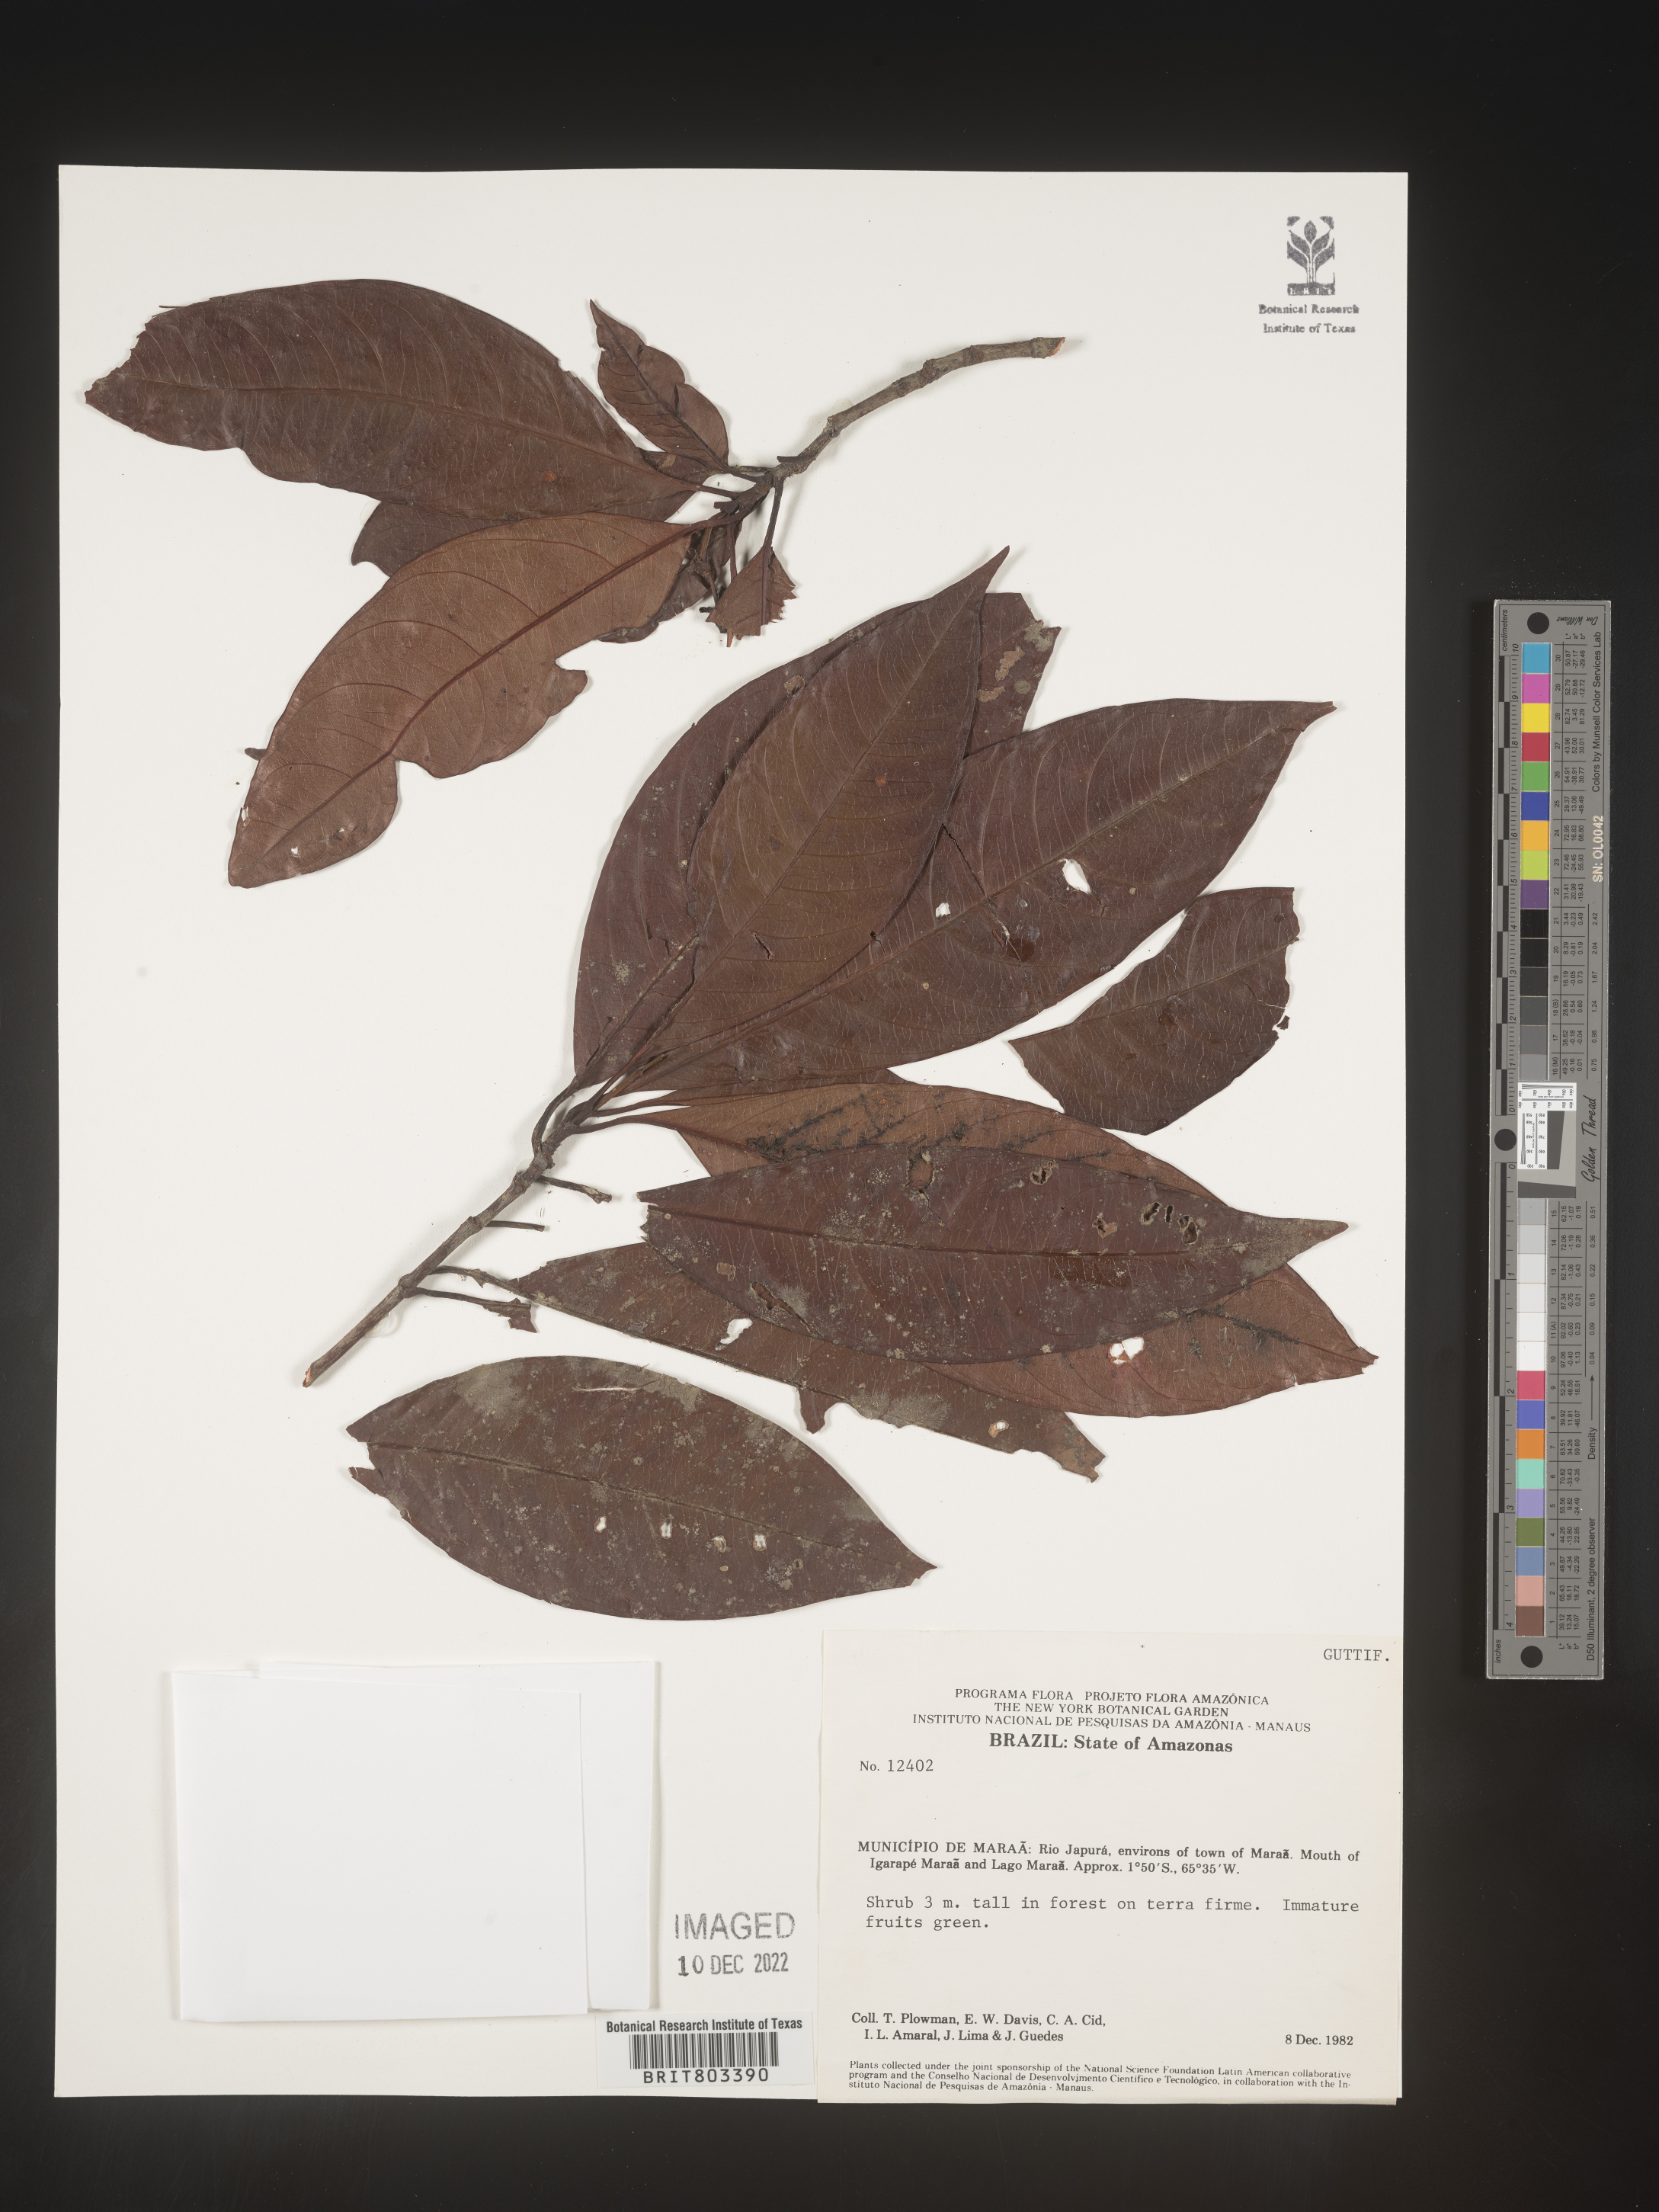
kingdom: Plantae
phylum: Tracheophyta
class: Magnoliopsida
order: Malpighiales
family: Clusiaceae
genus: Tovomita
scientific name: Tovomita
